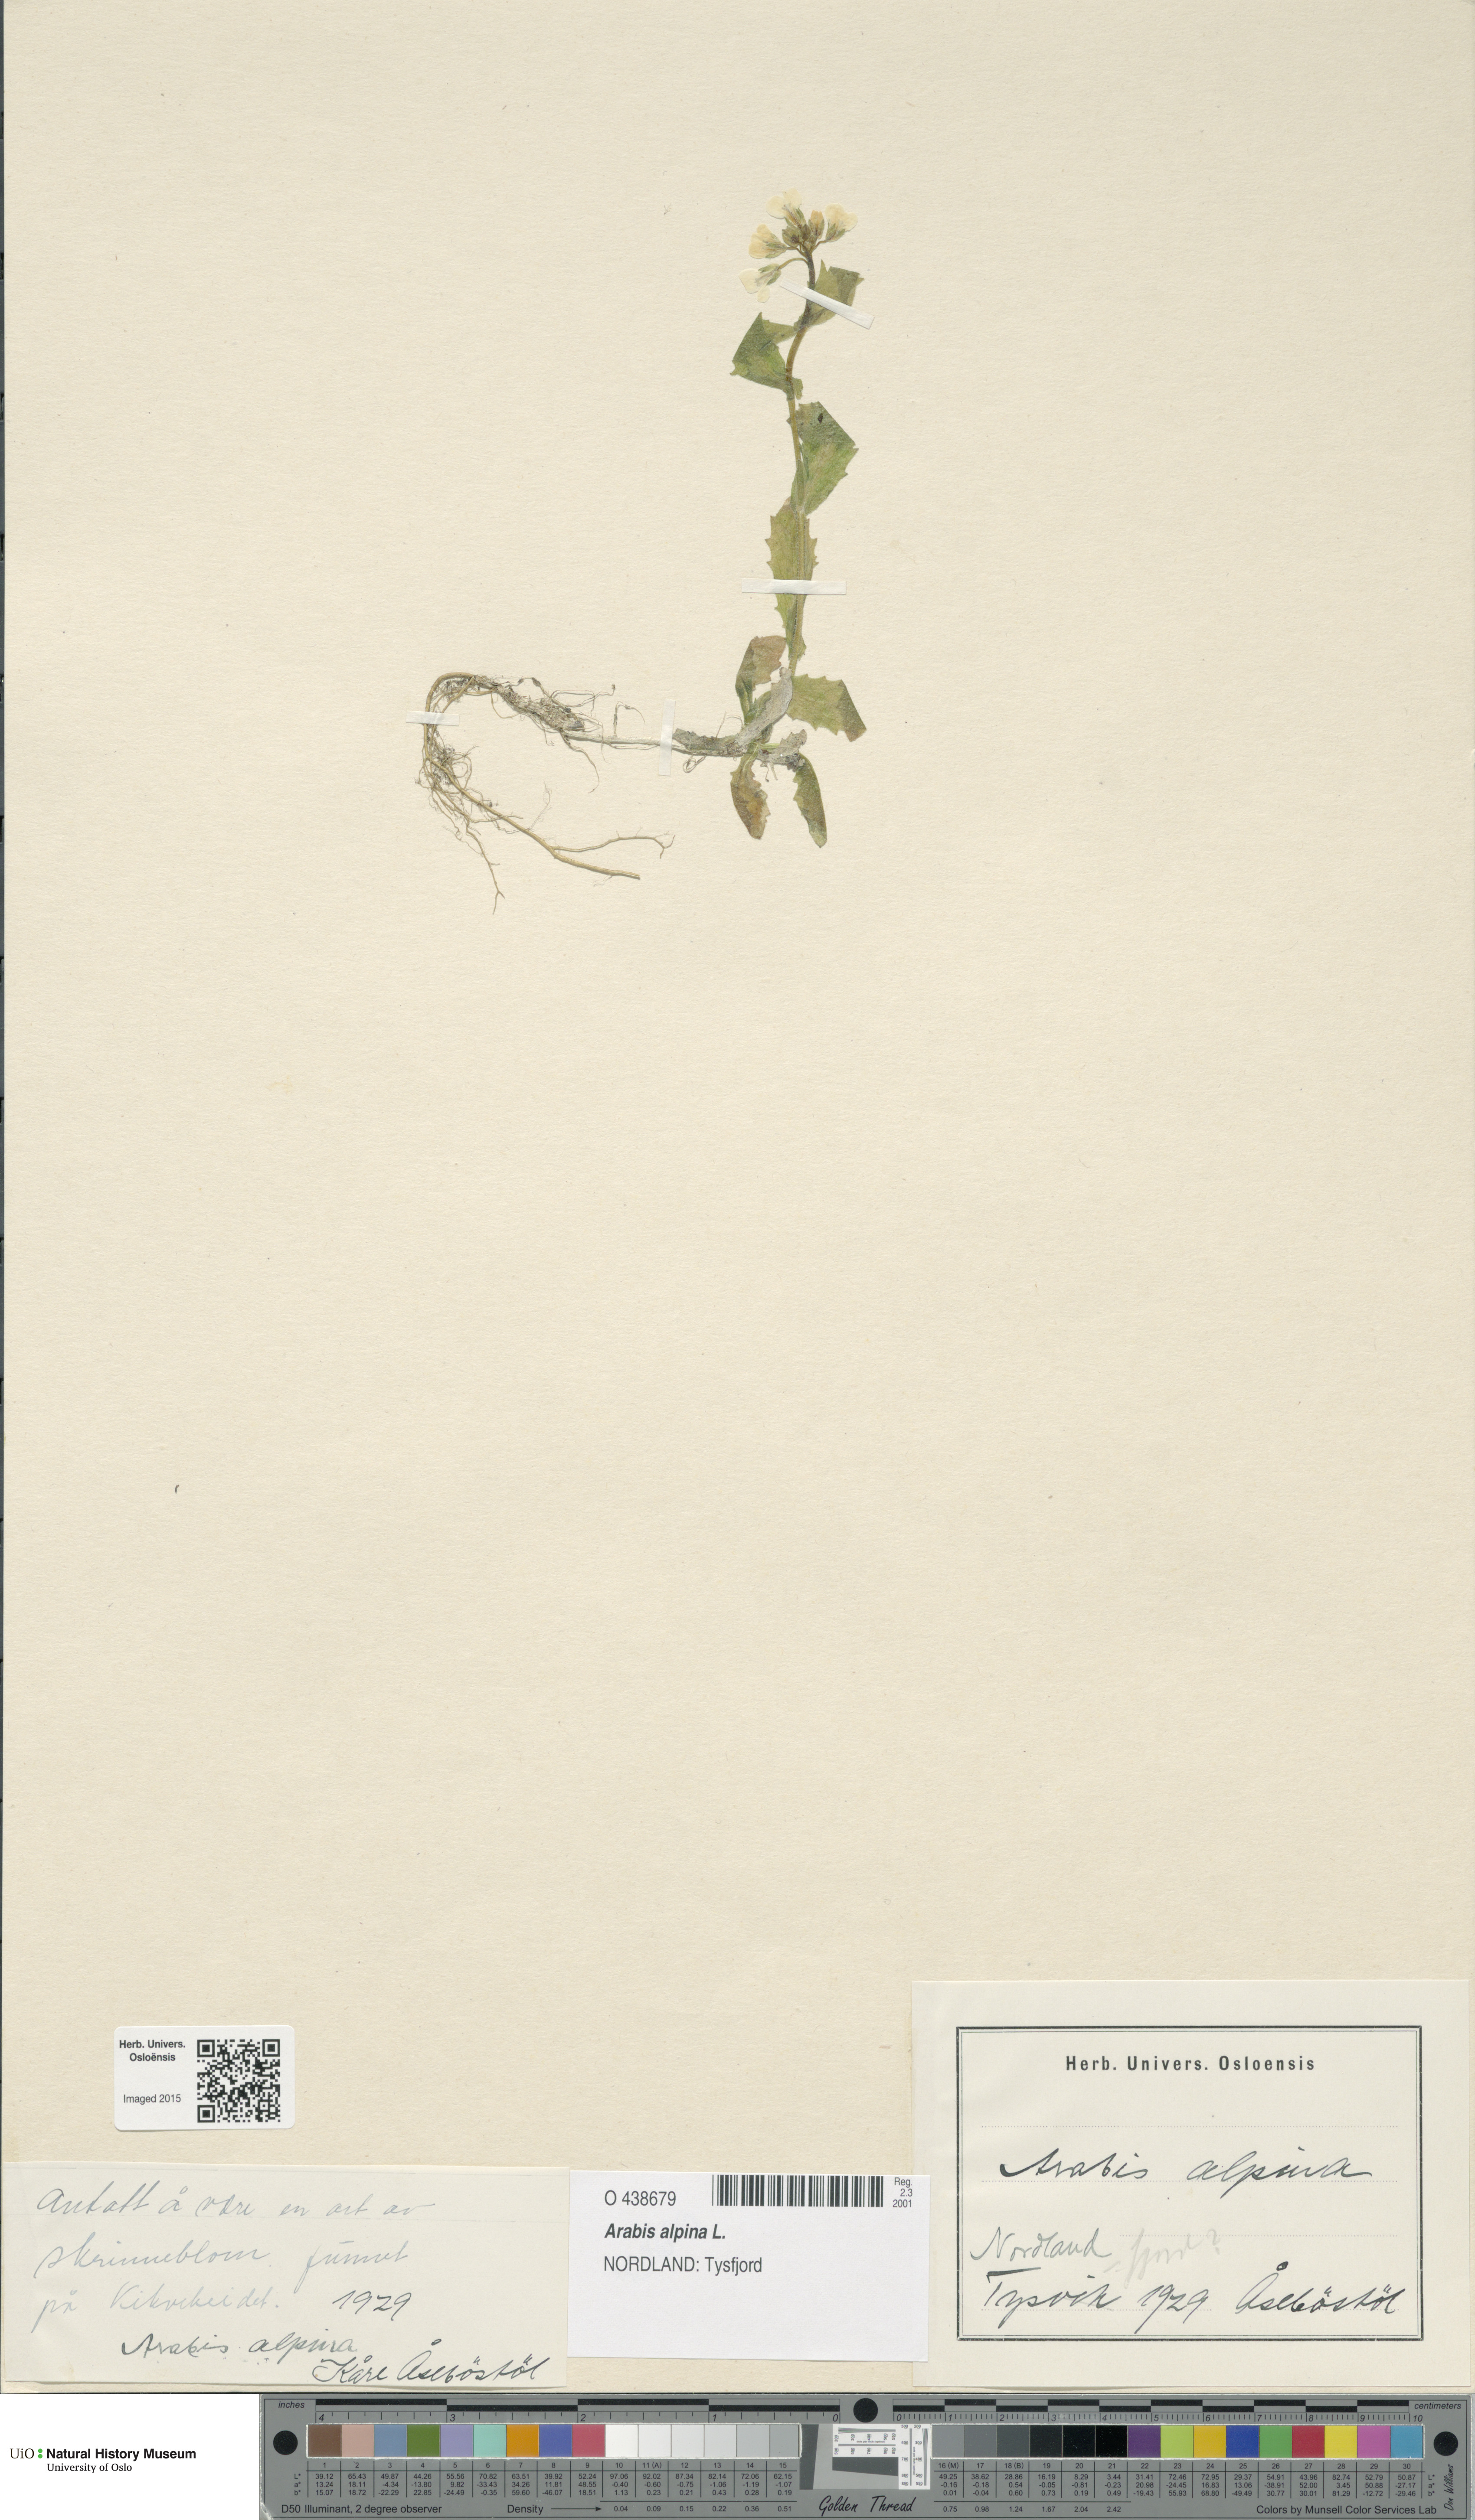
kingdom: Plantae
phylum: Tracheophyta
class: Magnoliopsida
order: Brassicales
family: Brassicaceae
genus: Arabis
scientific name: Arabis alpina
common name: Alpine rock-cress
